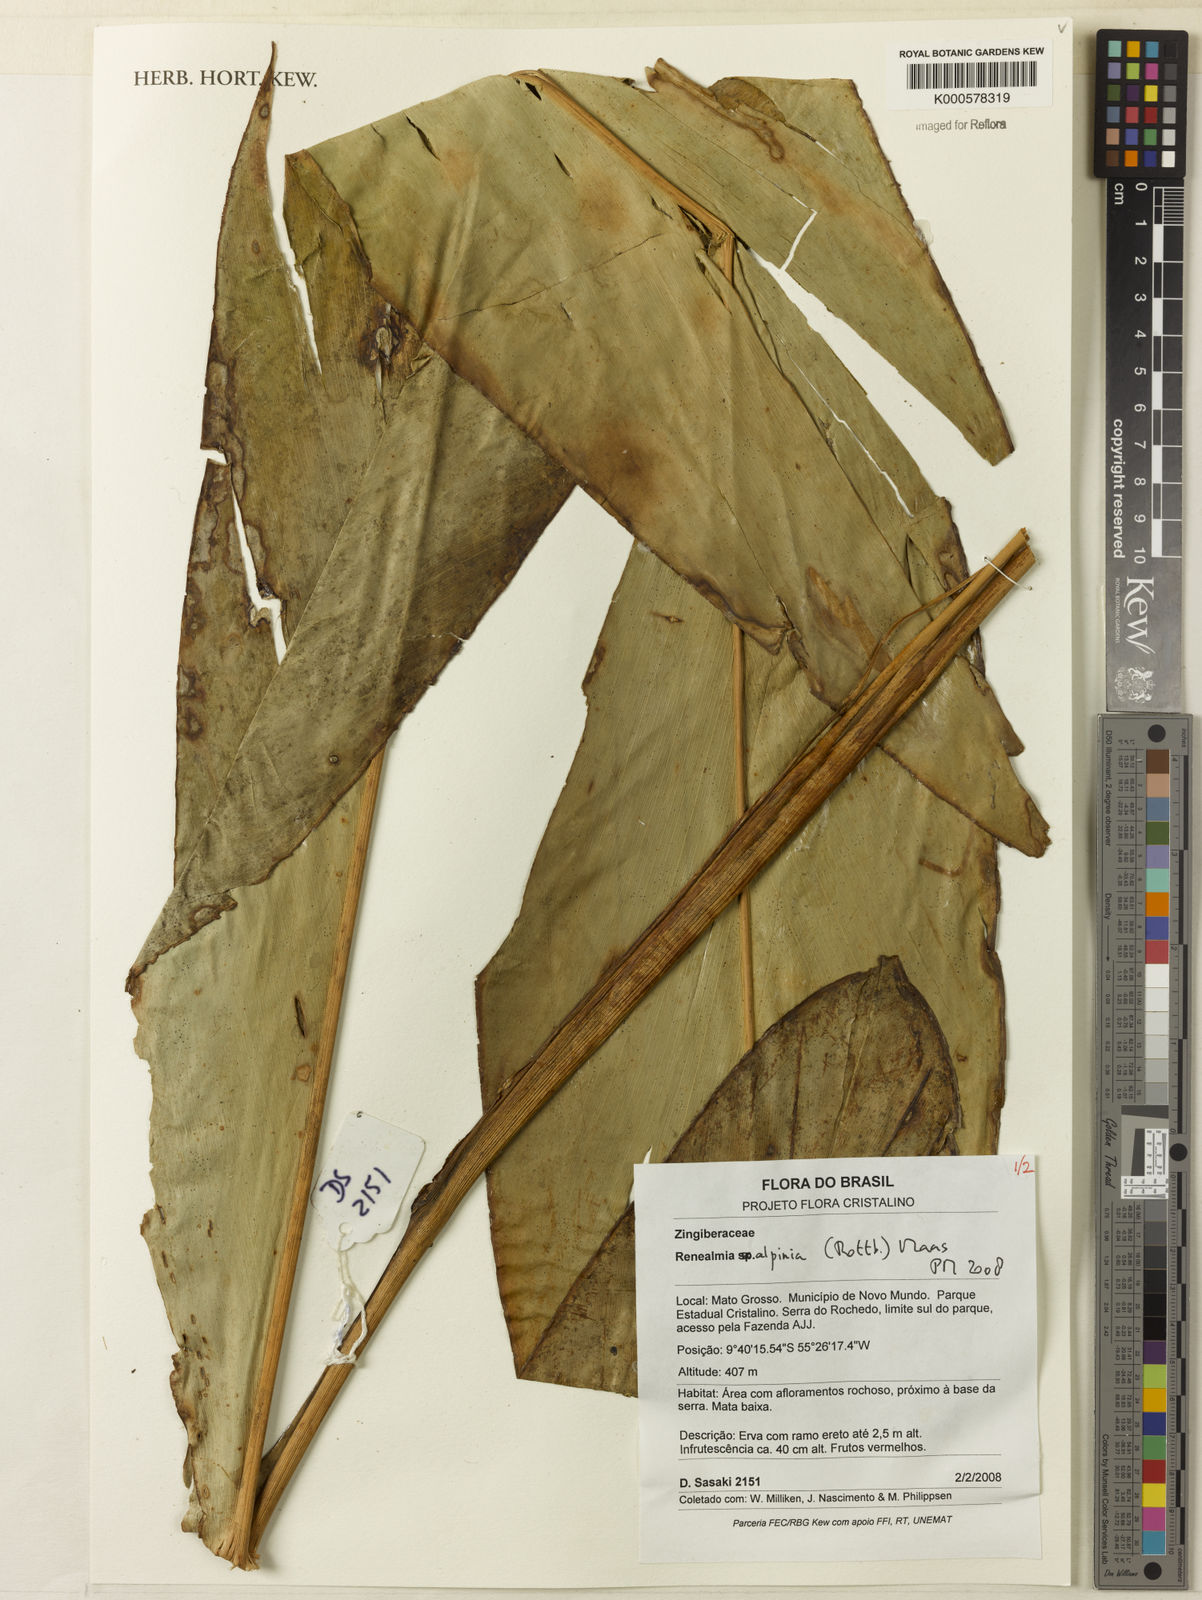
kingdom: Plantae
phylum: Tracheophyta
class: Liliopsida
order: Zingiberales
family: Zingiberaceae
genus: Renealmia
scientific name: Renealmia alpinia
